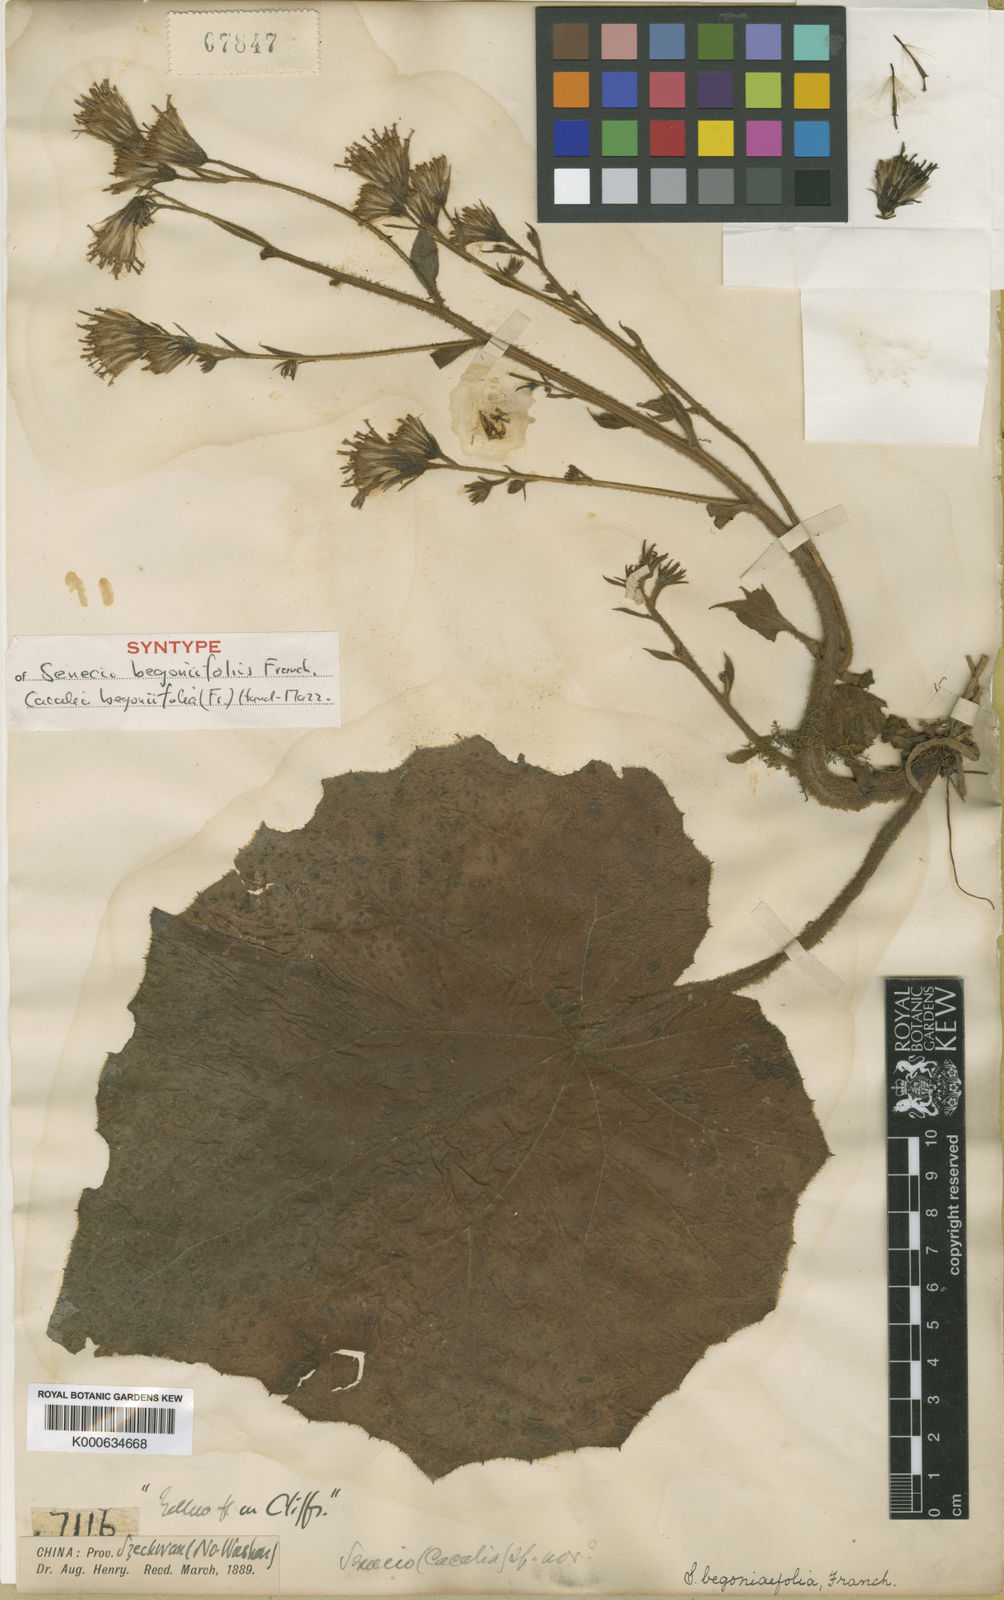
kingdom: Plantae
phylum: Tracheophyta
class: Magnoliopsida
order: Asterales
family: Asteraceae
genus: Parasenecio
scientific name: Parasenecio begoniifolius
